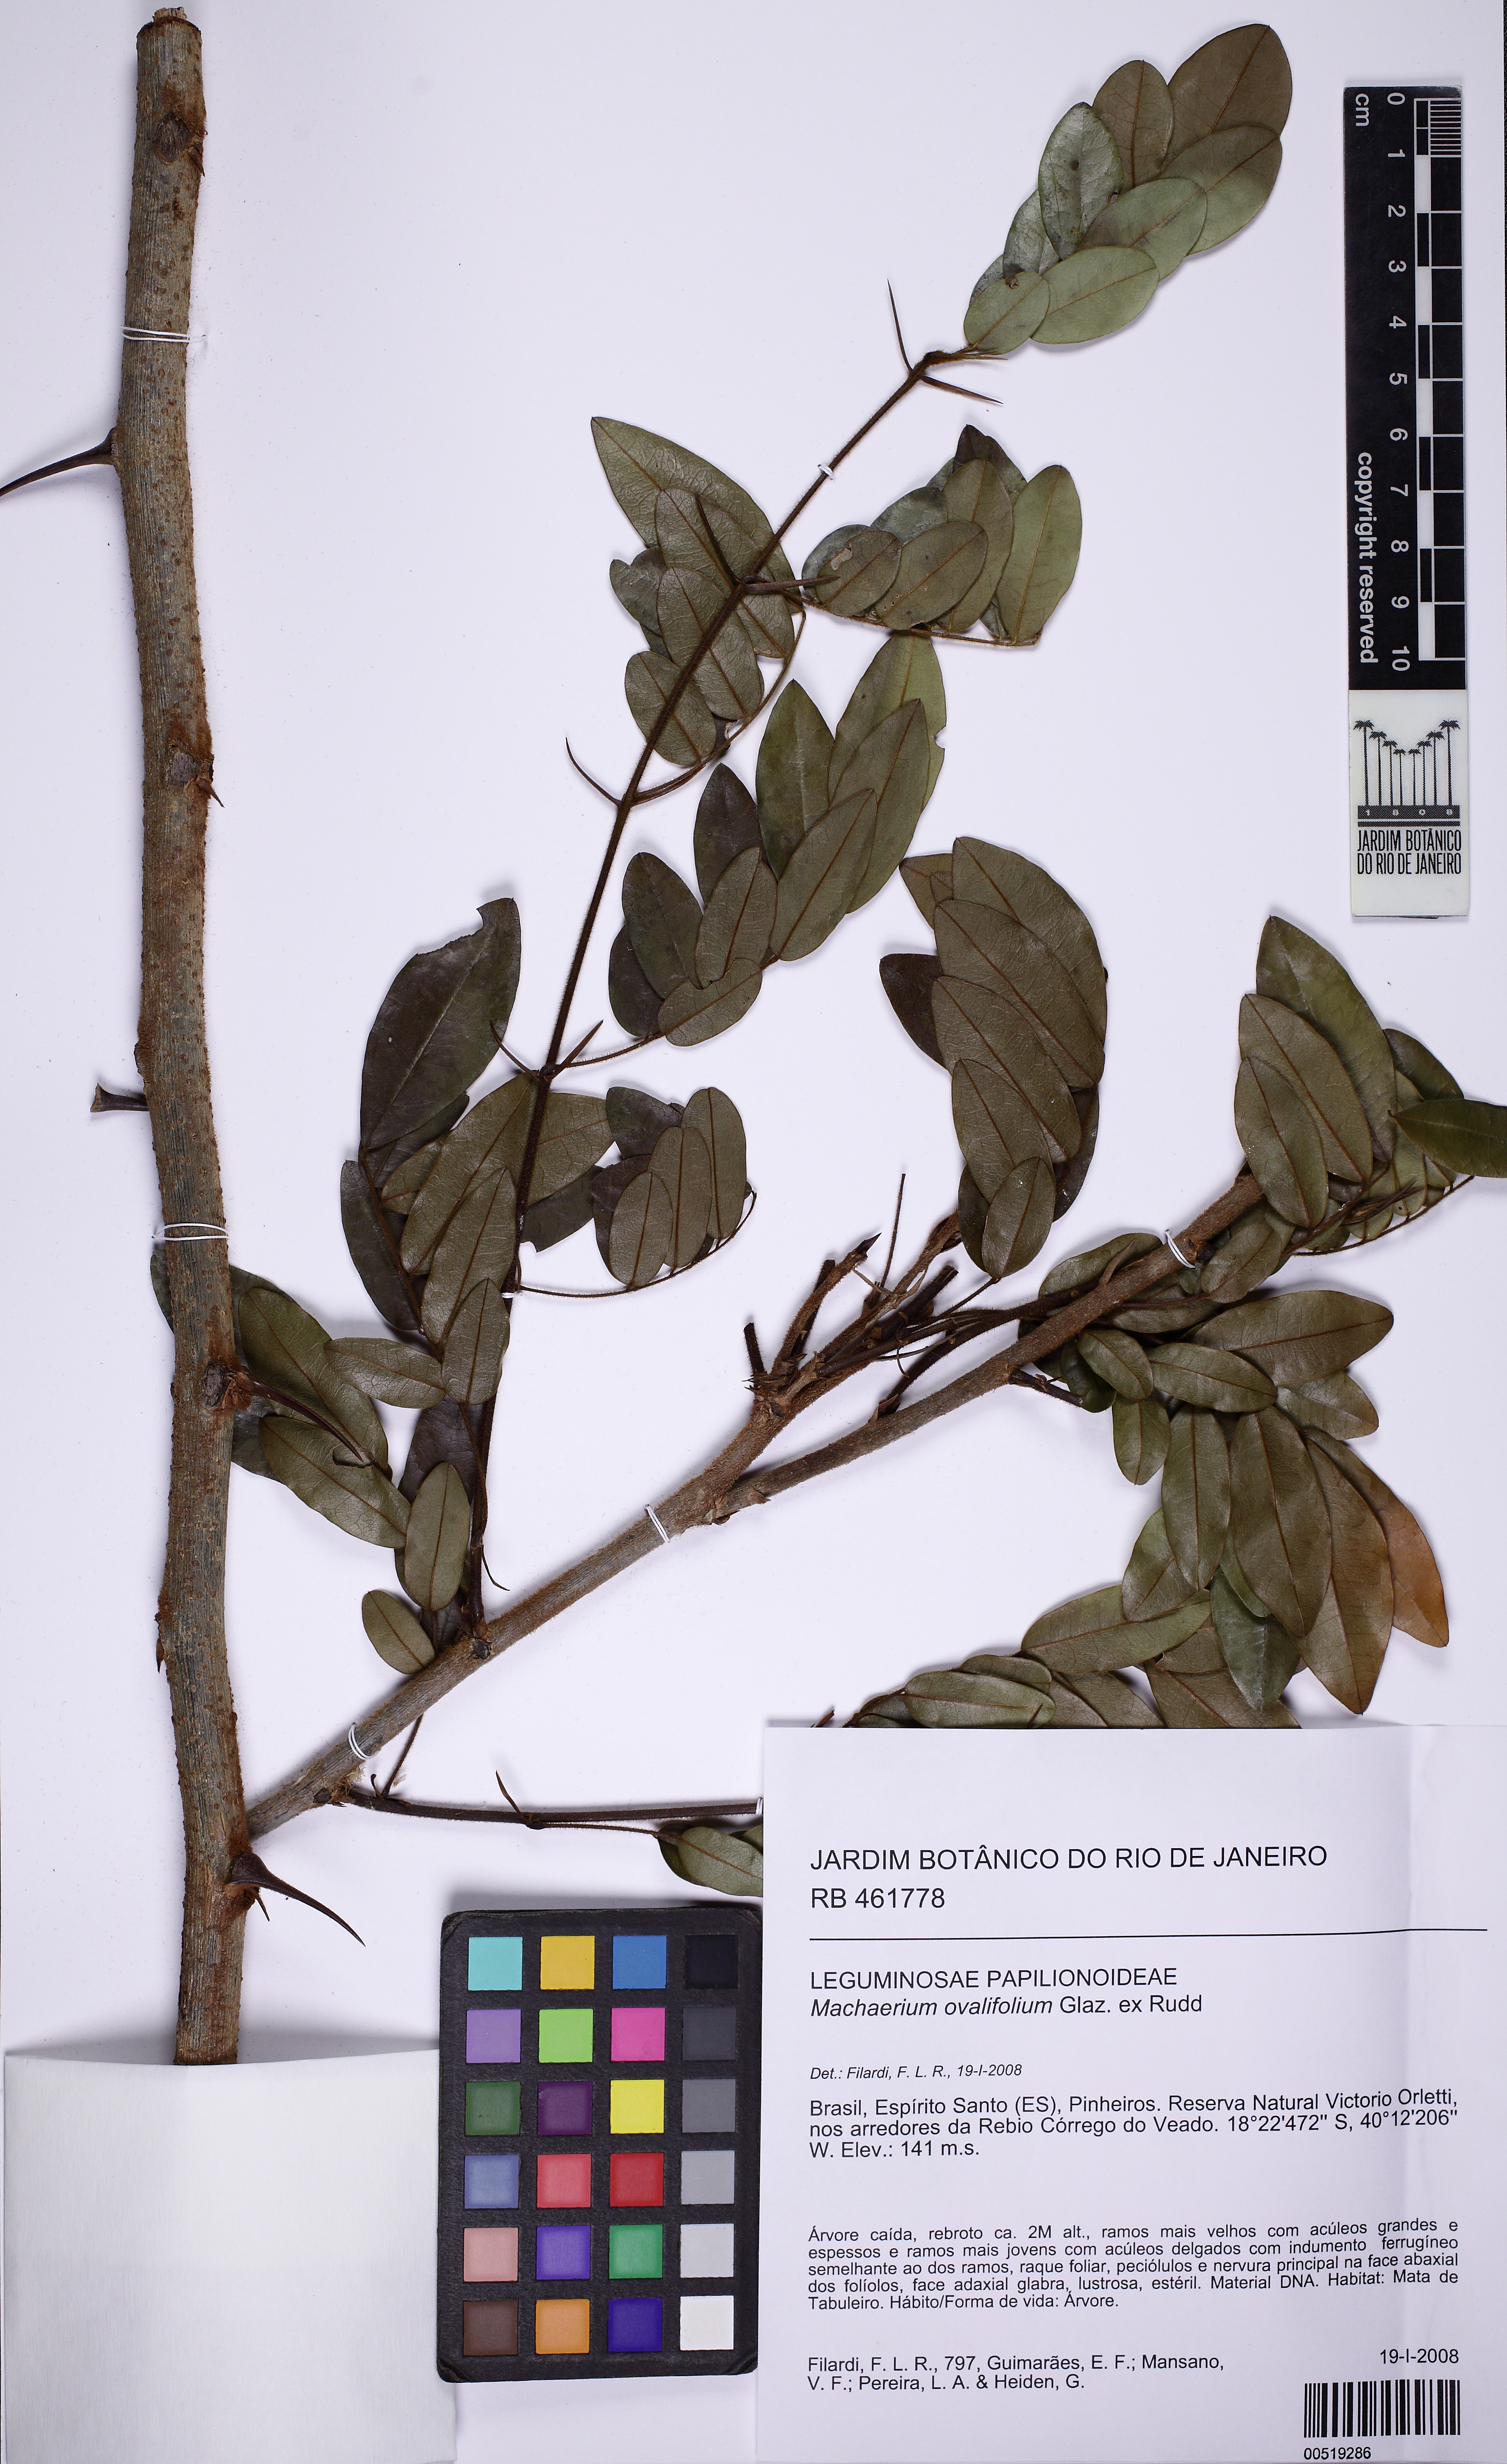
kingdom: Plantae
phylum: Tracheophyta
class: Magnoliopsida
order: Fabales
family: Fabaceae
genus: Machaerium
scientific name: Machaerium ovalifolium
